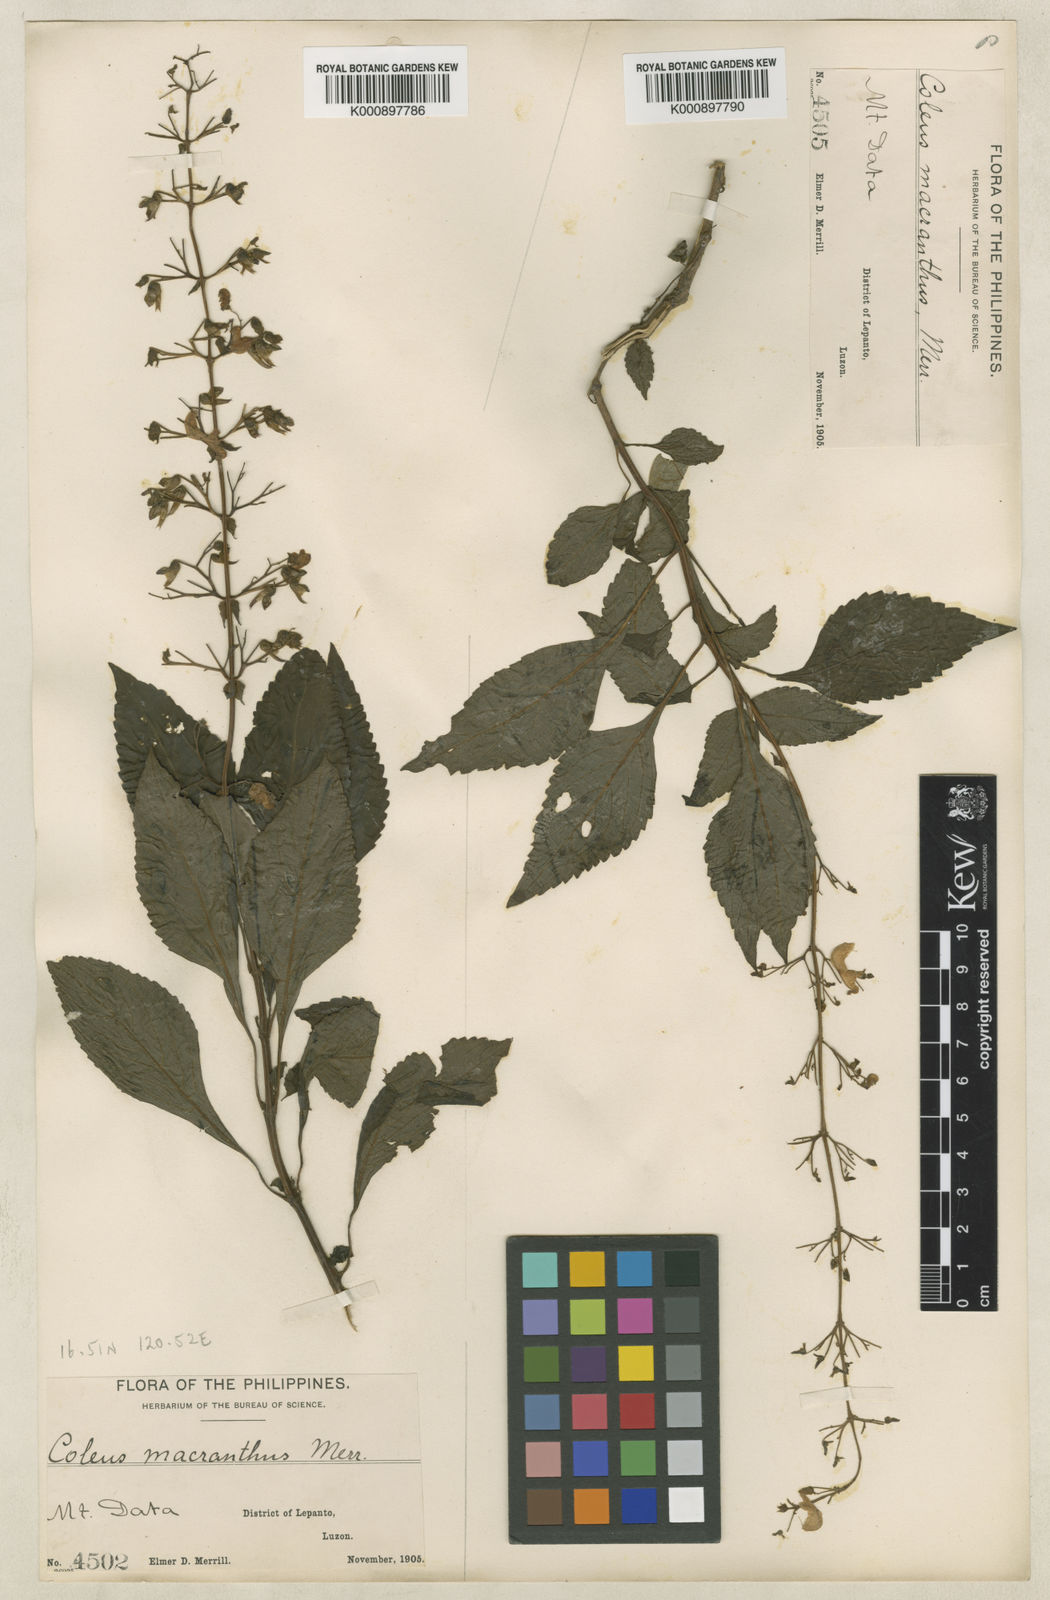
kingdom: Plantae
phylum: Tracheophyta
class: Magnoliopsida
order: Lamiales
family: Lamiaceae
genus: Coleus
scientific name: Coleus scutellarioides
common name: Coleus
